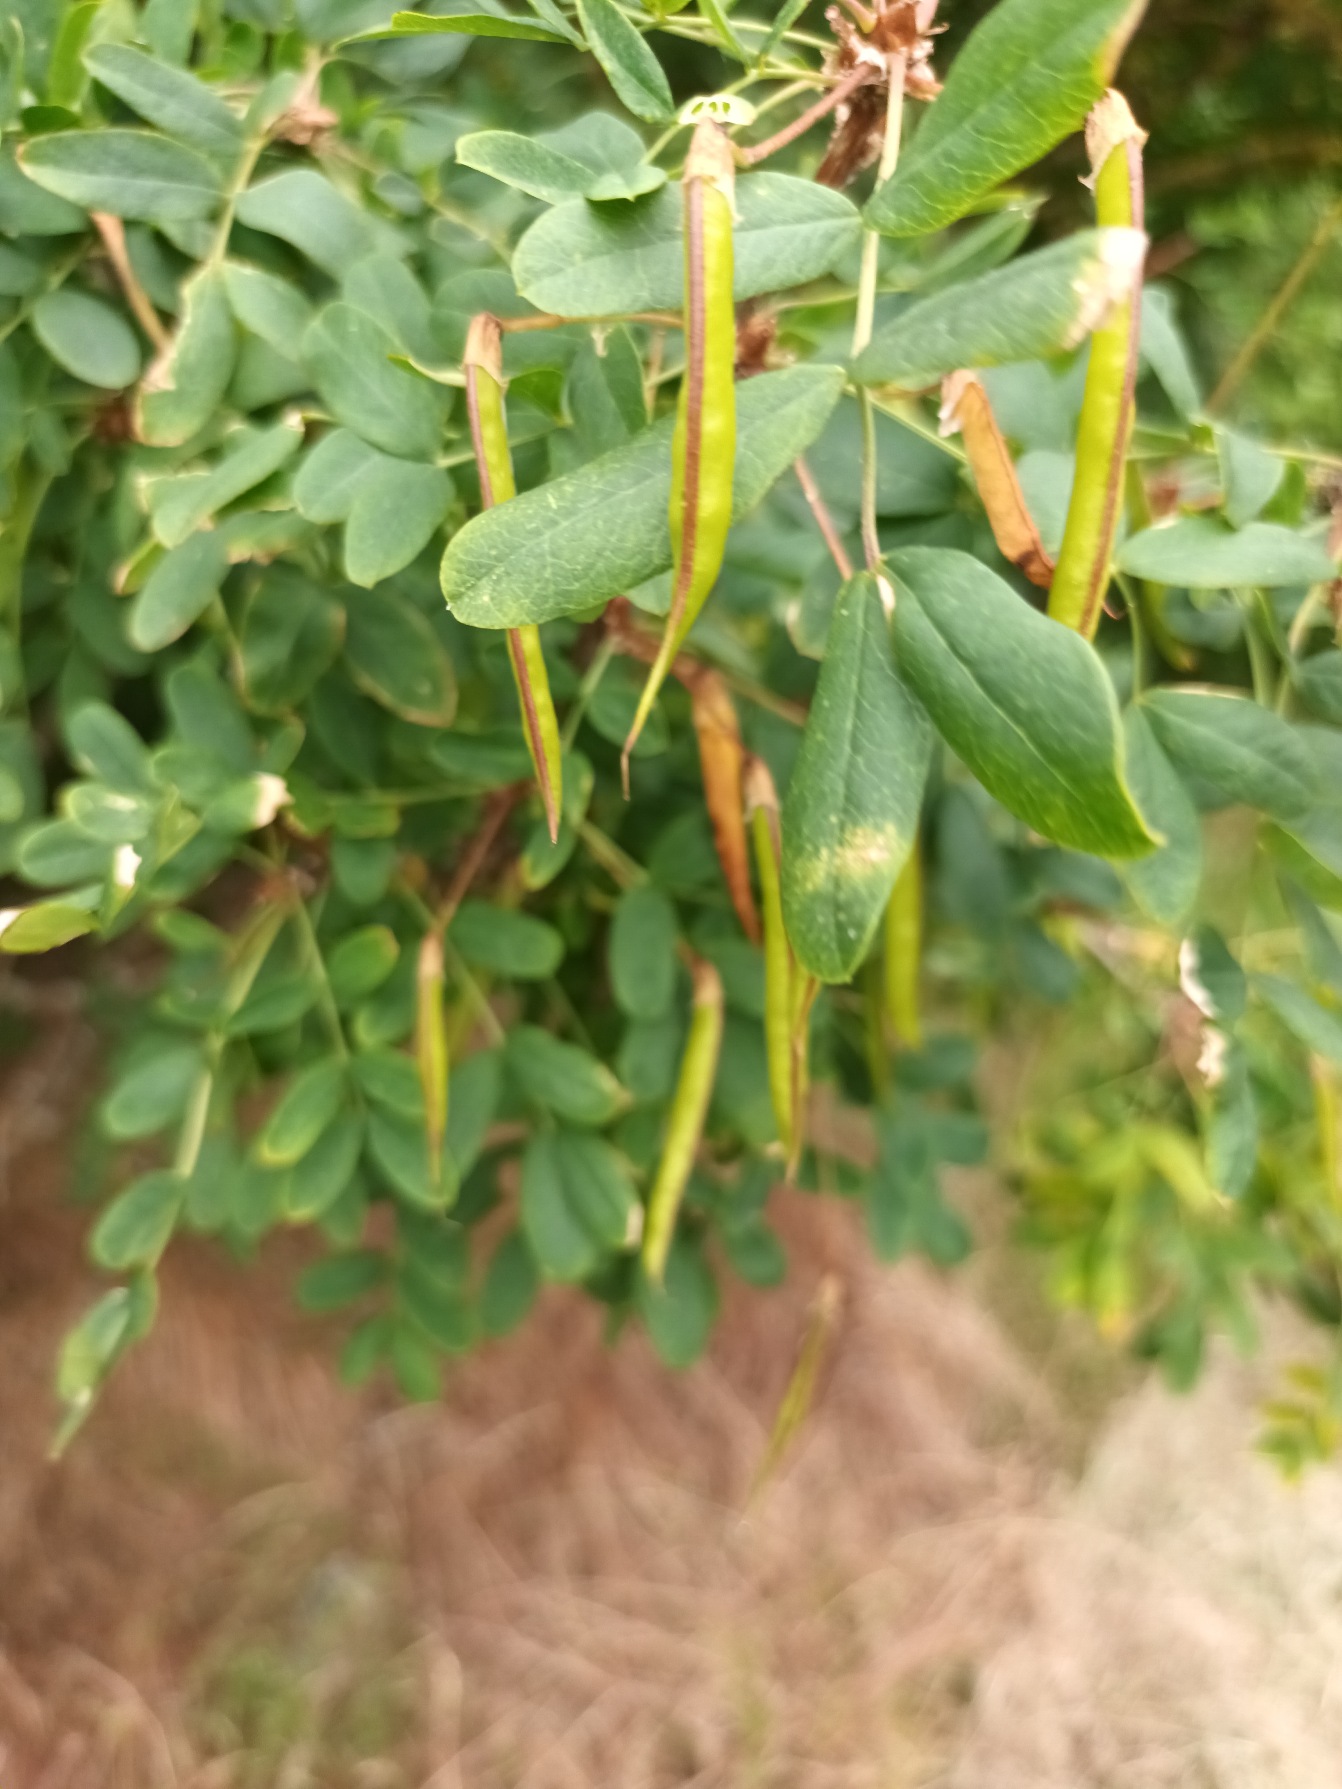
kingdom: Plantae
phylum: Tracheophyta
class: Magnoliopsida
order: Fabales
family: Fabaceae
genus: Caragana
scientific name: Caragana arborescens
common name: Ærtebusk
